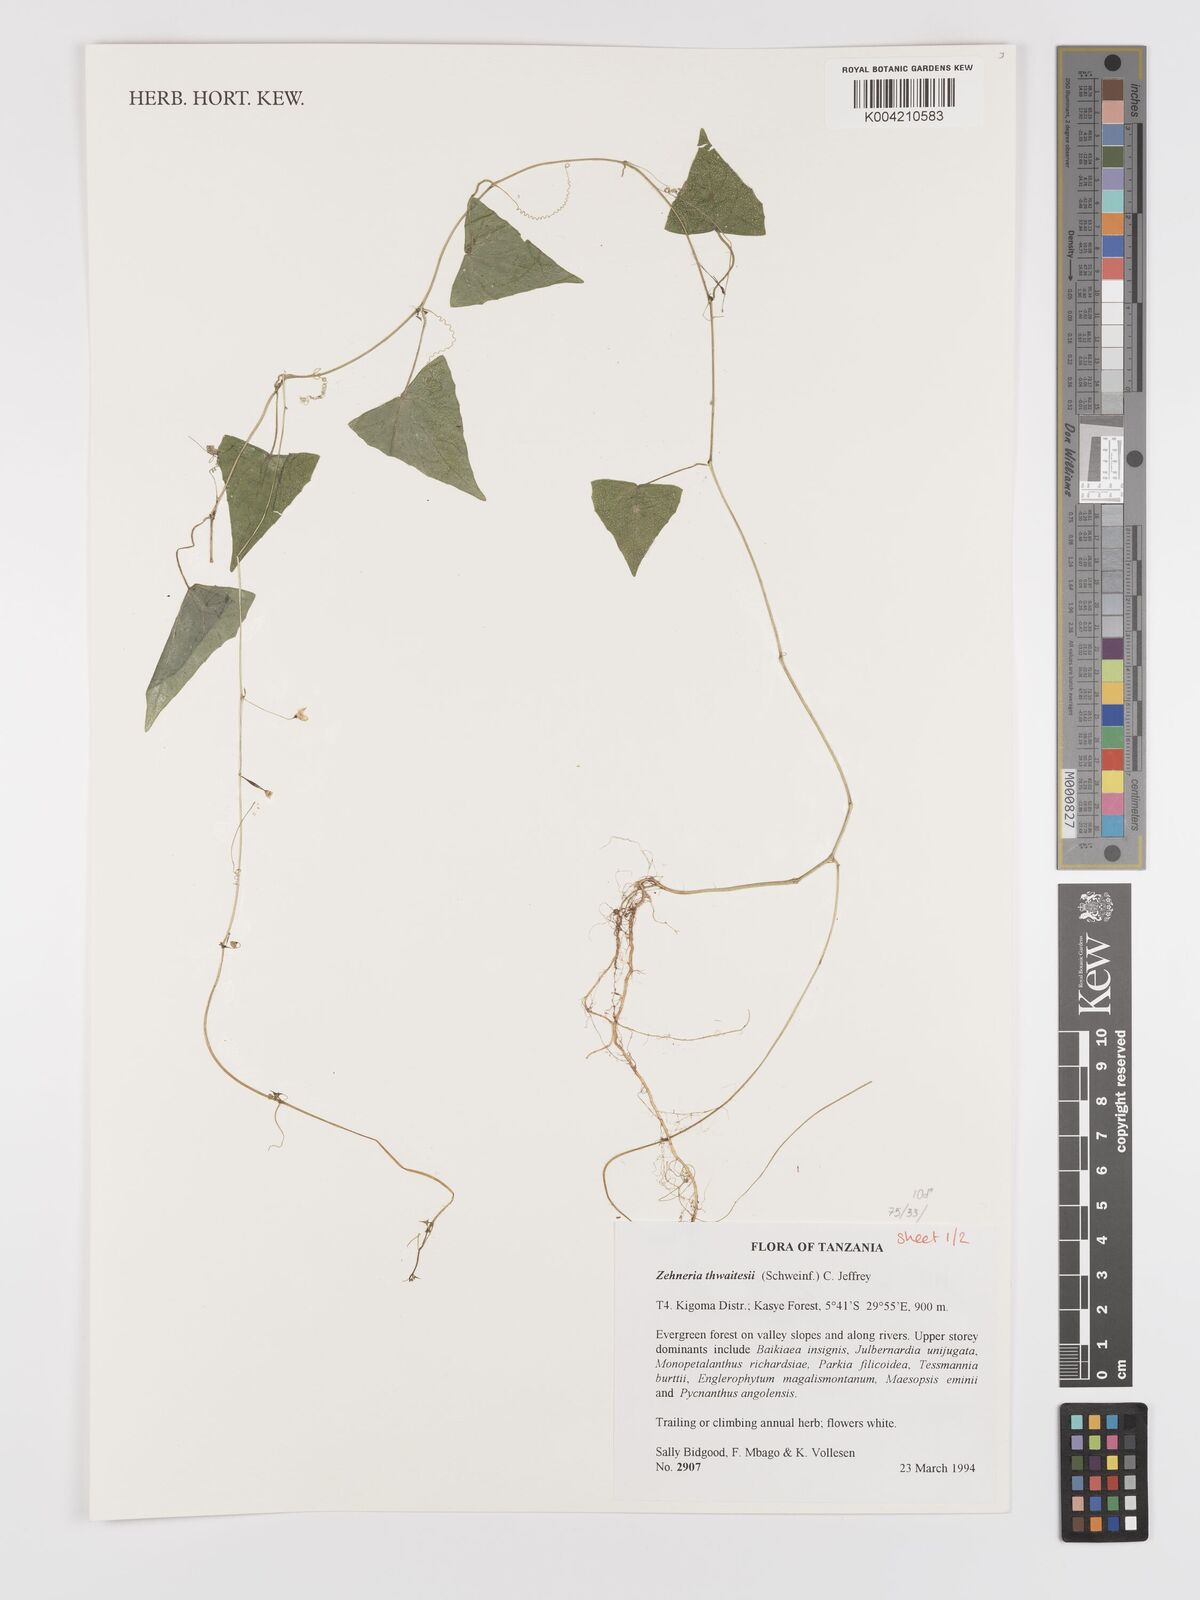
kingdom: Plantae
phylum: Tracheophyta
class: Magnoliopsida
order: Cucurbitales
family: Cucurbitaceae
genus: Zehneria
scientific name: Zehneria thwaitesii
